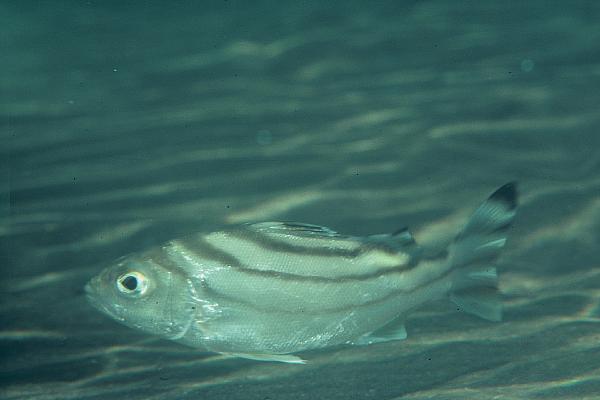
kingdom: Animalia
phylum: Chordata
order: Perciformes
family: Terapontidae
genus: Terapon
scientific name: Terapon jarbua
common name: Jarbua terapon
